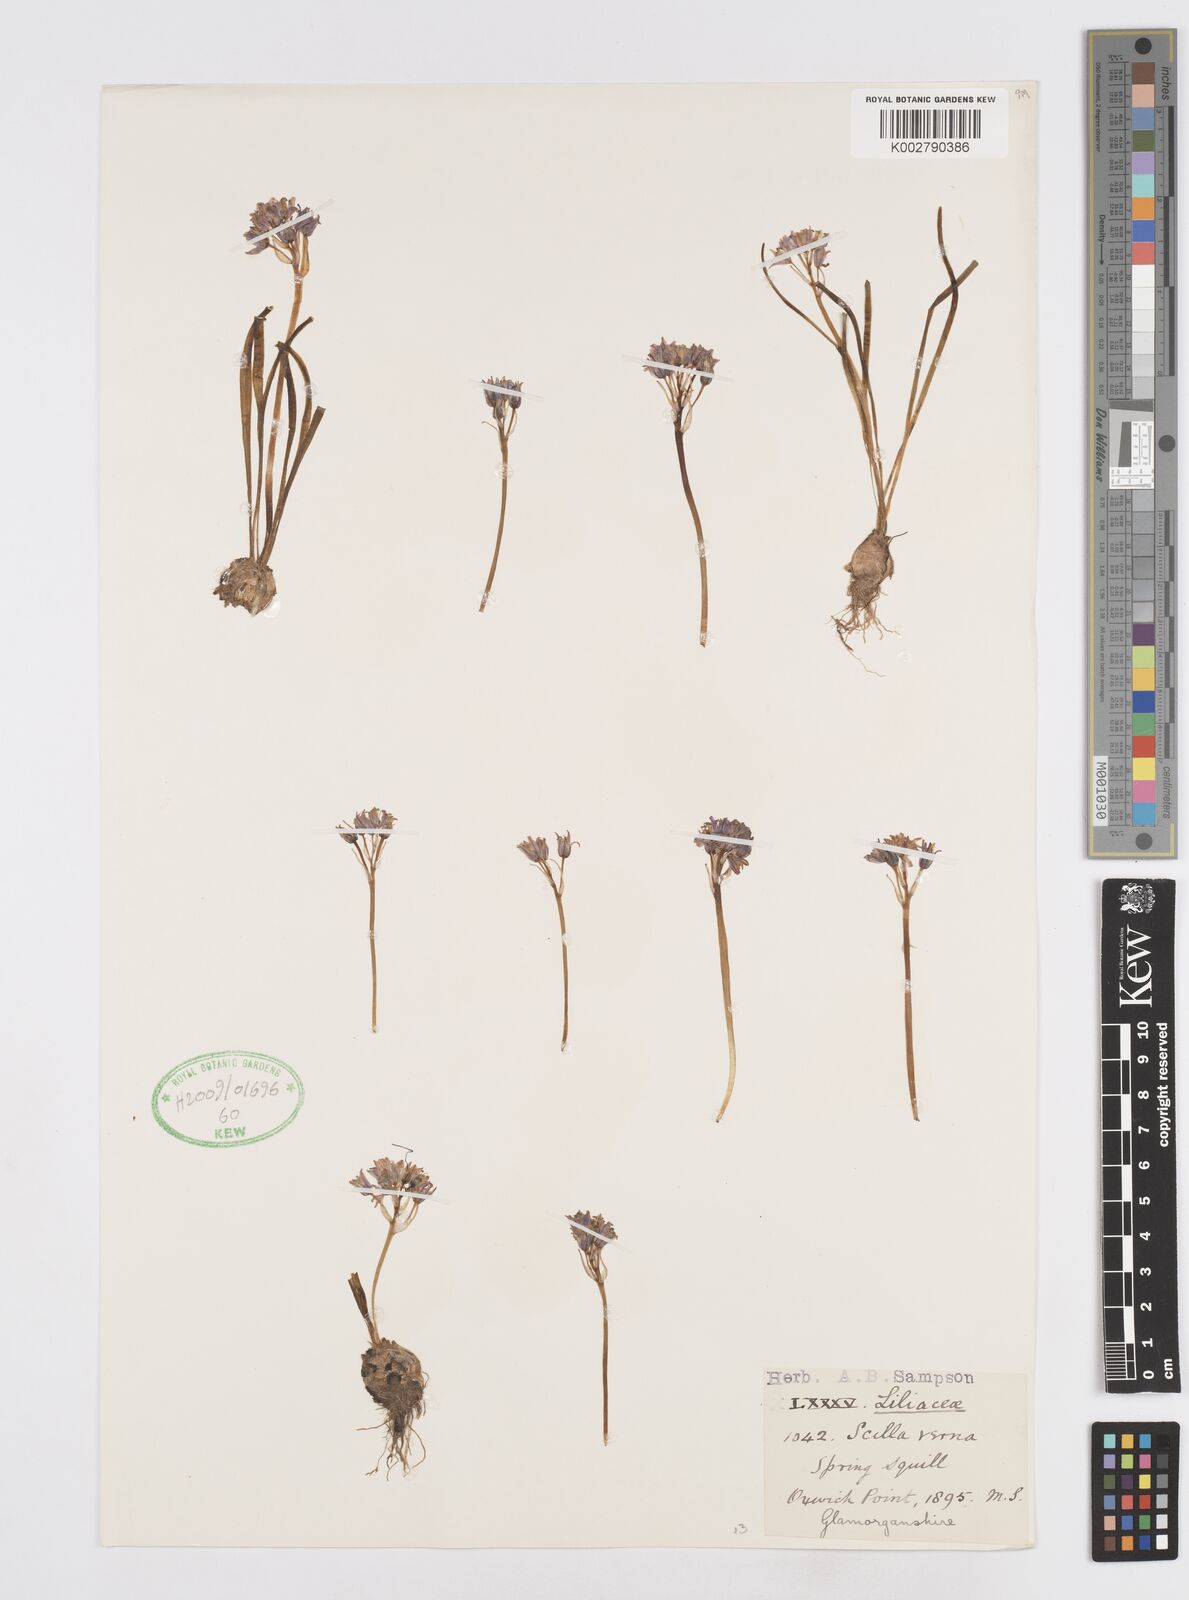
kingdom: Plantae
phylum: Tracheophyta
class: Liliopsida
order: Asparagales
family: Asparagaceae
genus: Scilla
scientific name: Scilla verna
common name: Spring squill
